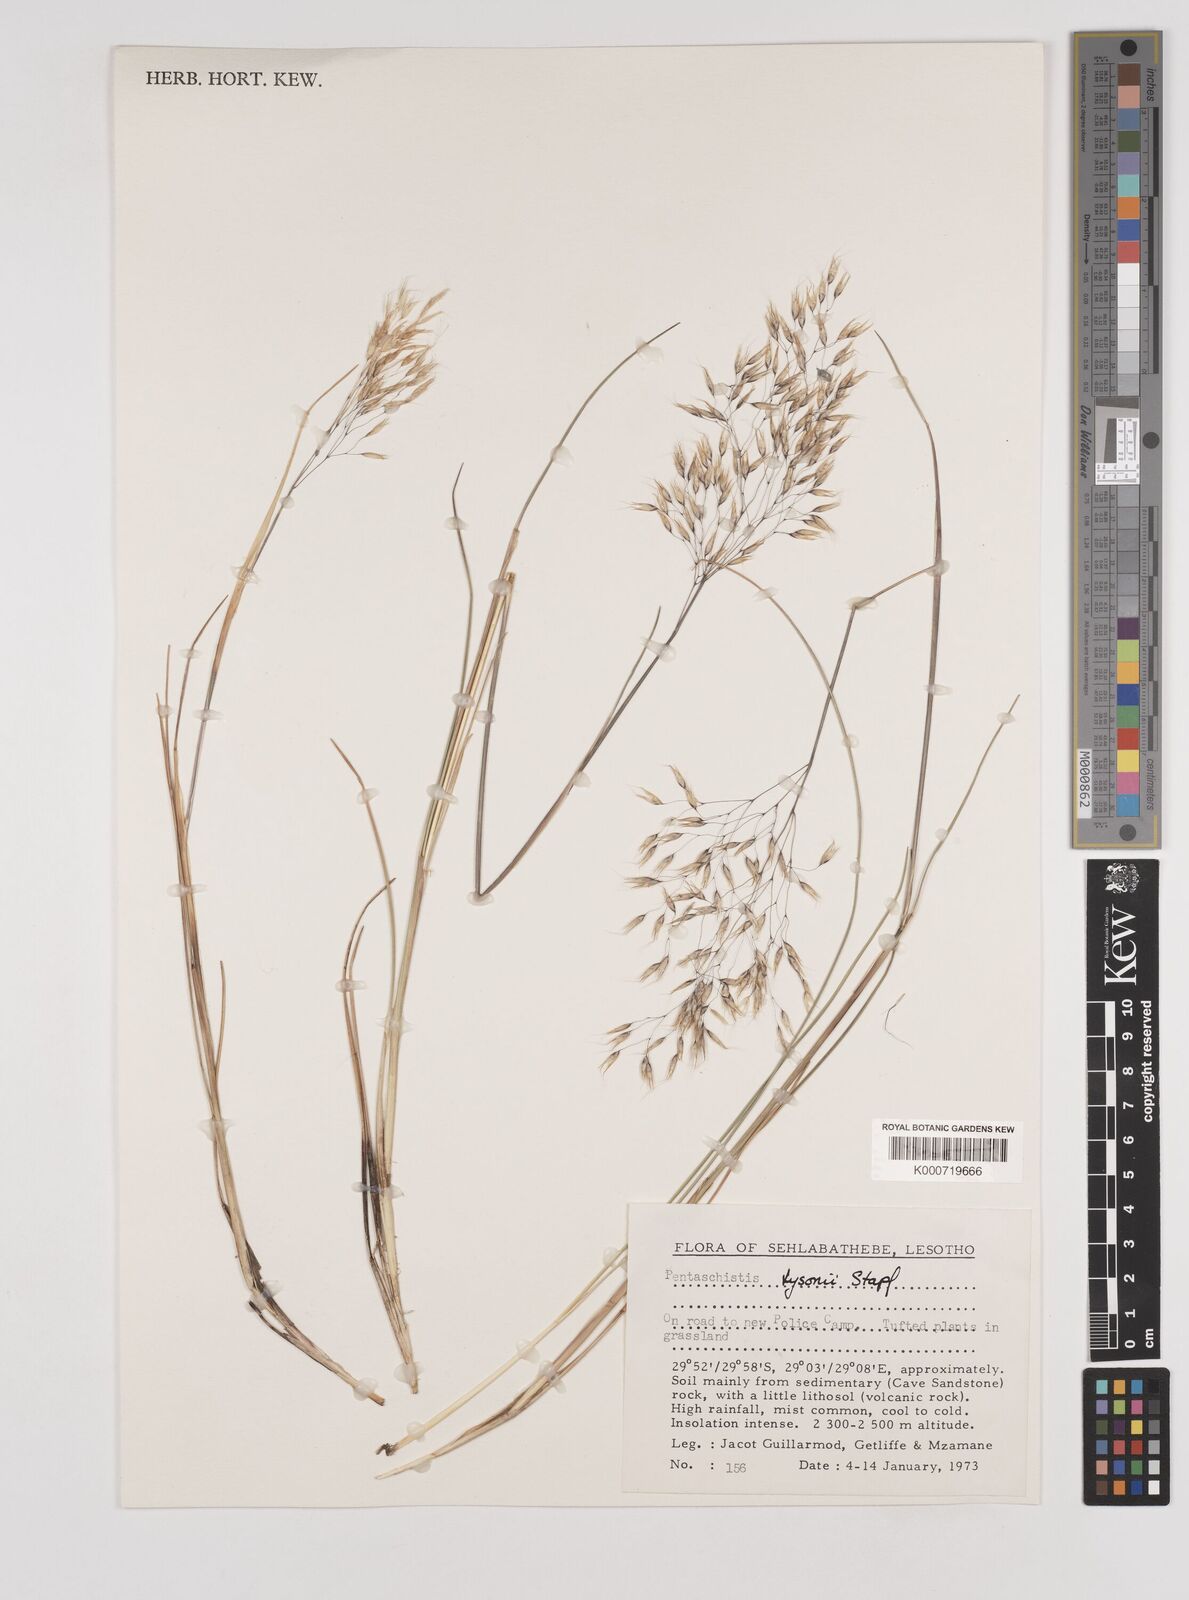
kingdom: Plantae
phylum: Tracheophyta
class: Liliopsida
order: Poales
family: Poaceae
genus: Pentameris
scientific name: Pentameris tysonii
